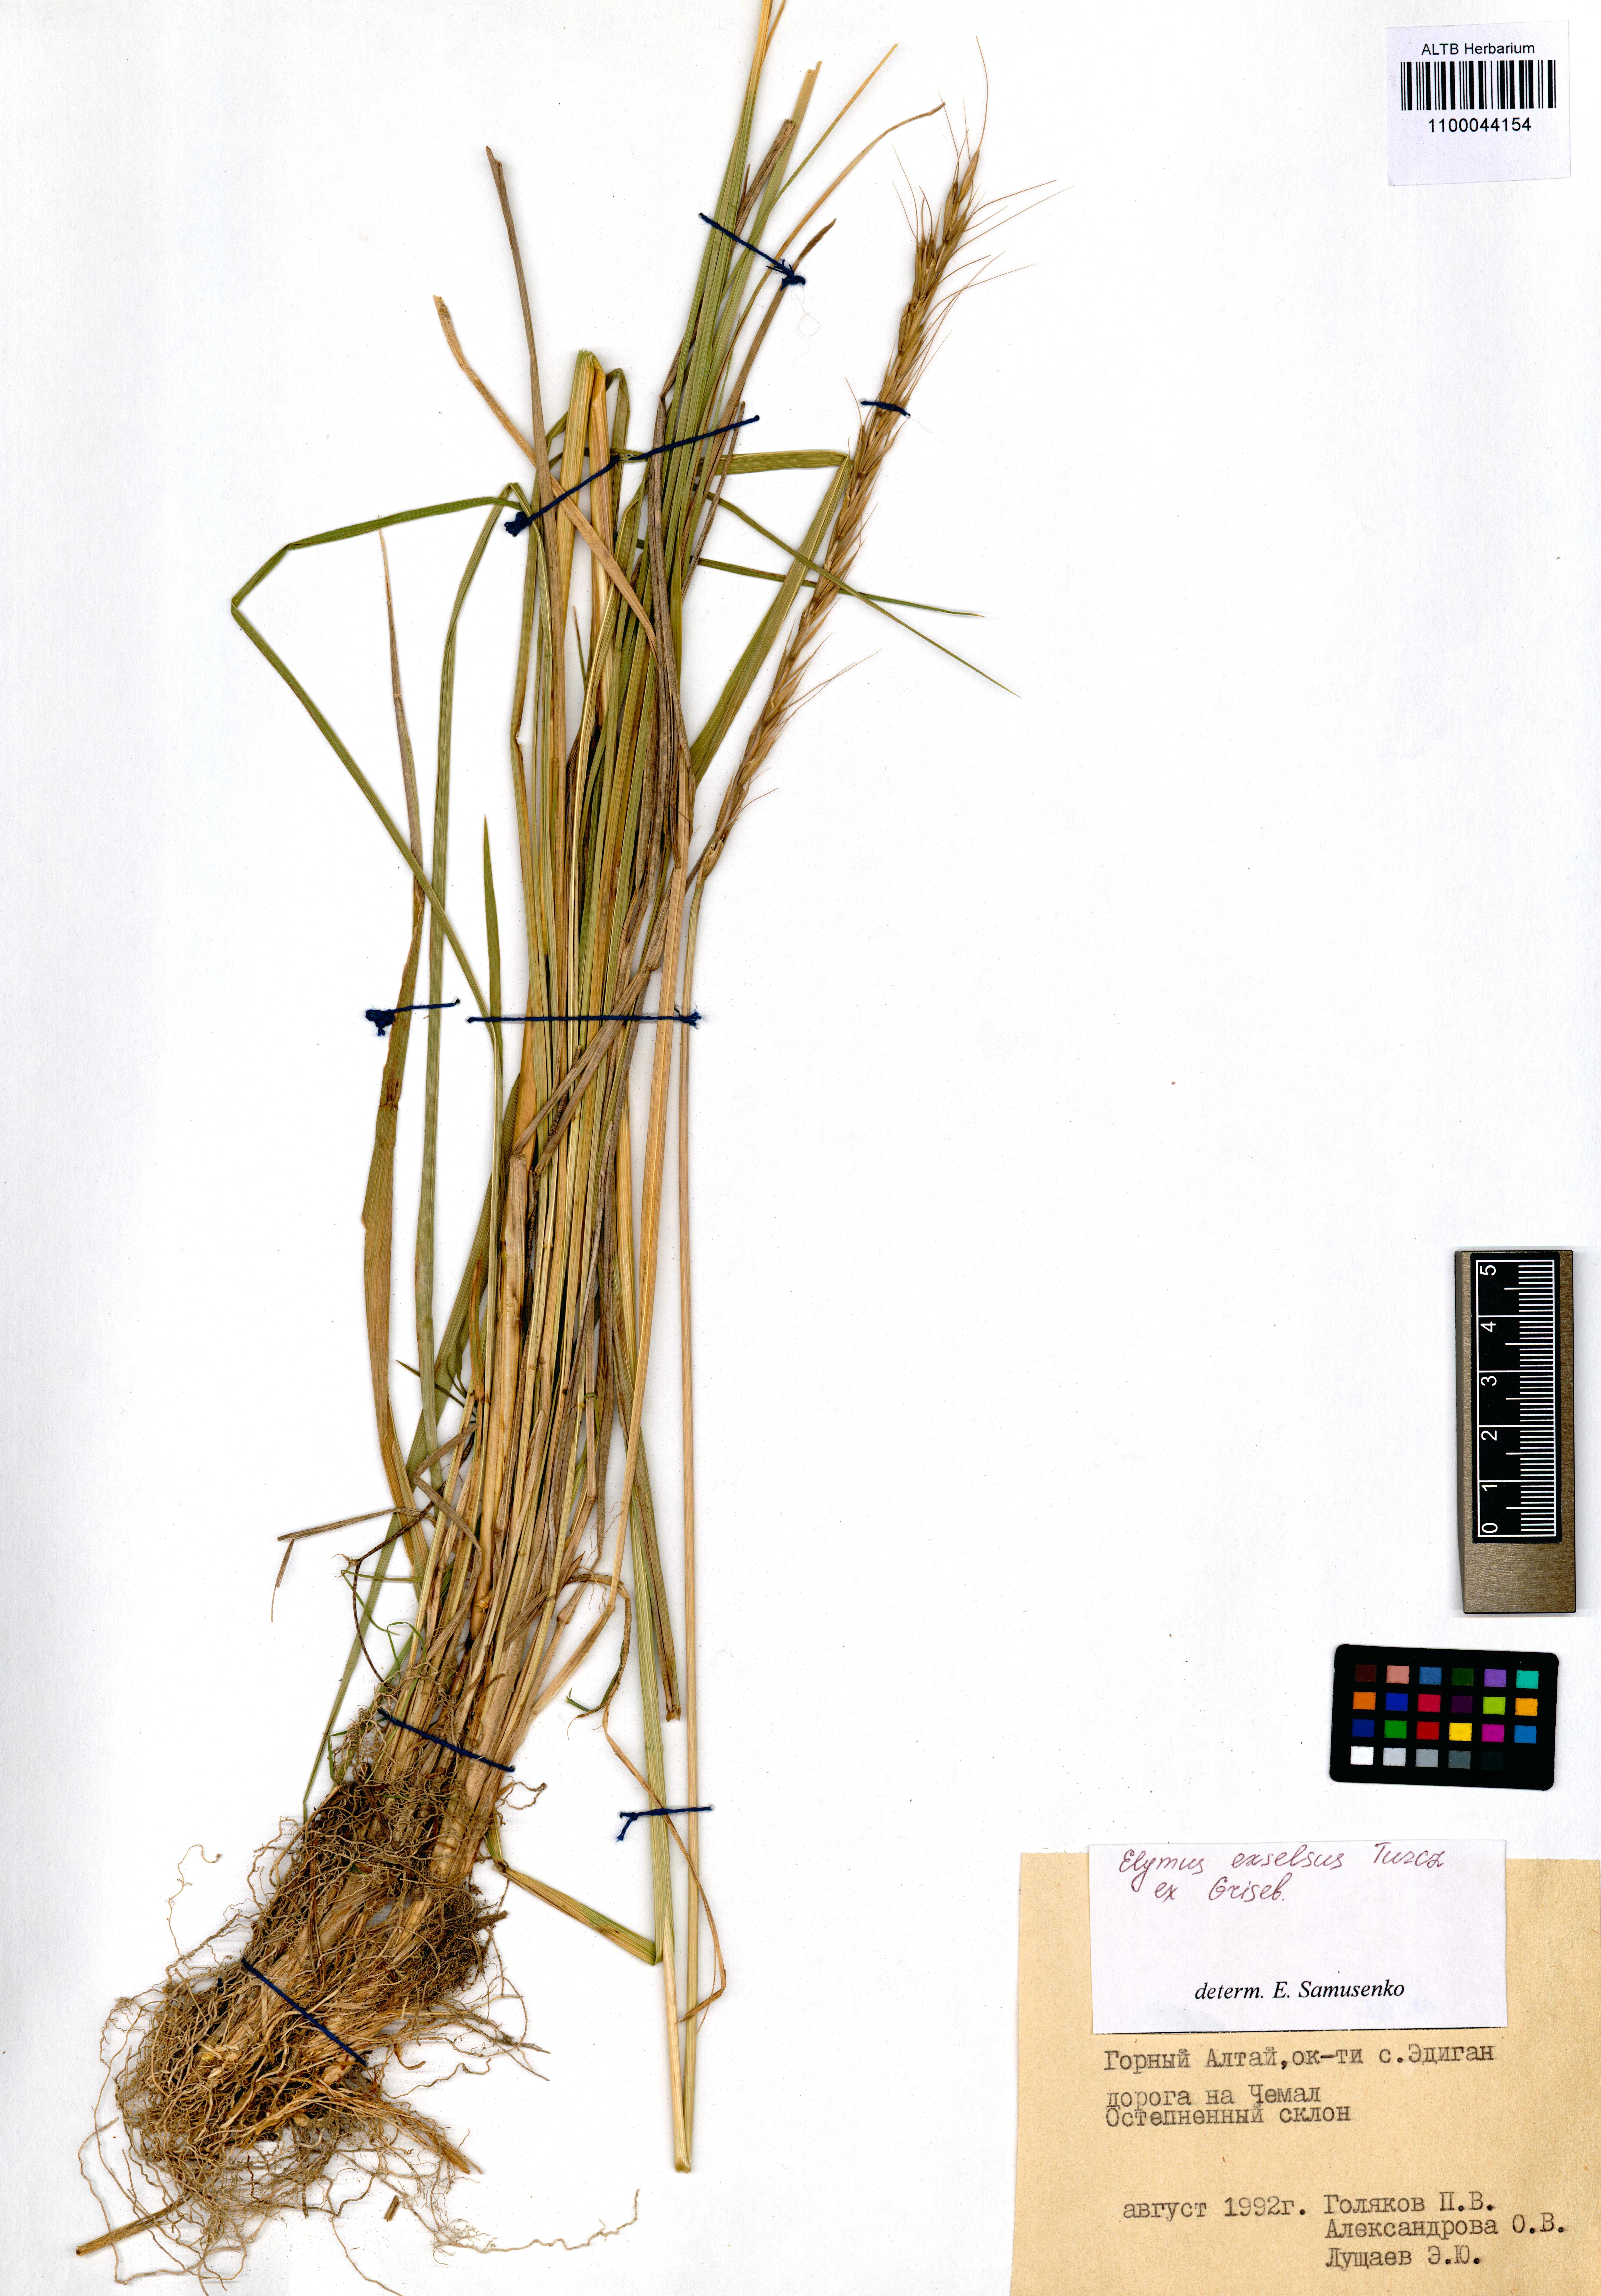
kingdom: Plantae
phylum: Tracheophyta
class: Liliopsida
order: Poales
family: Poaceae
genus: Elymus
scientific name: Elymus dahuricus
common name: Dahurian wild rye
